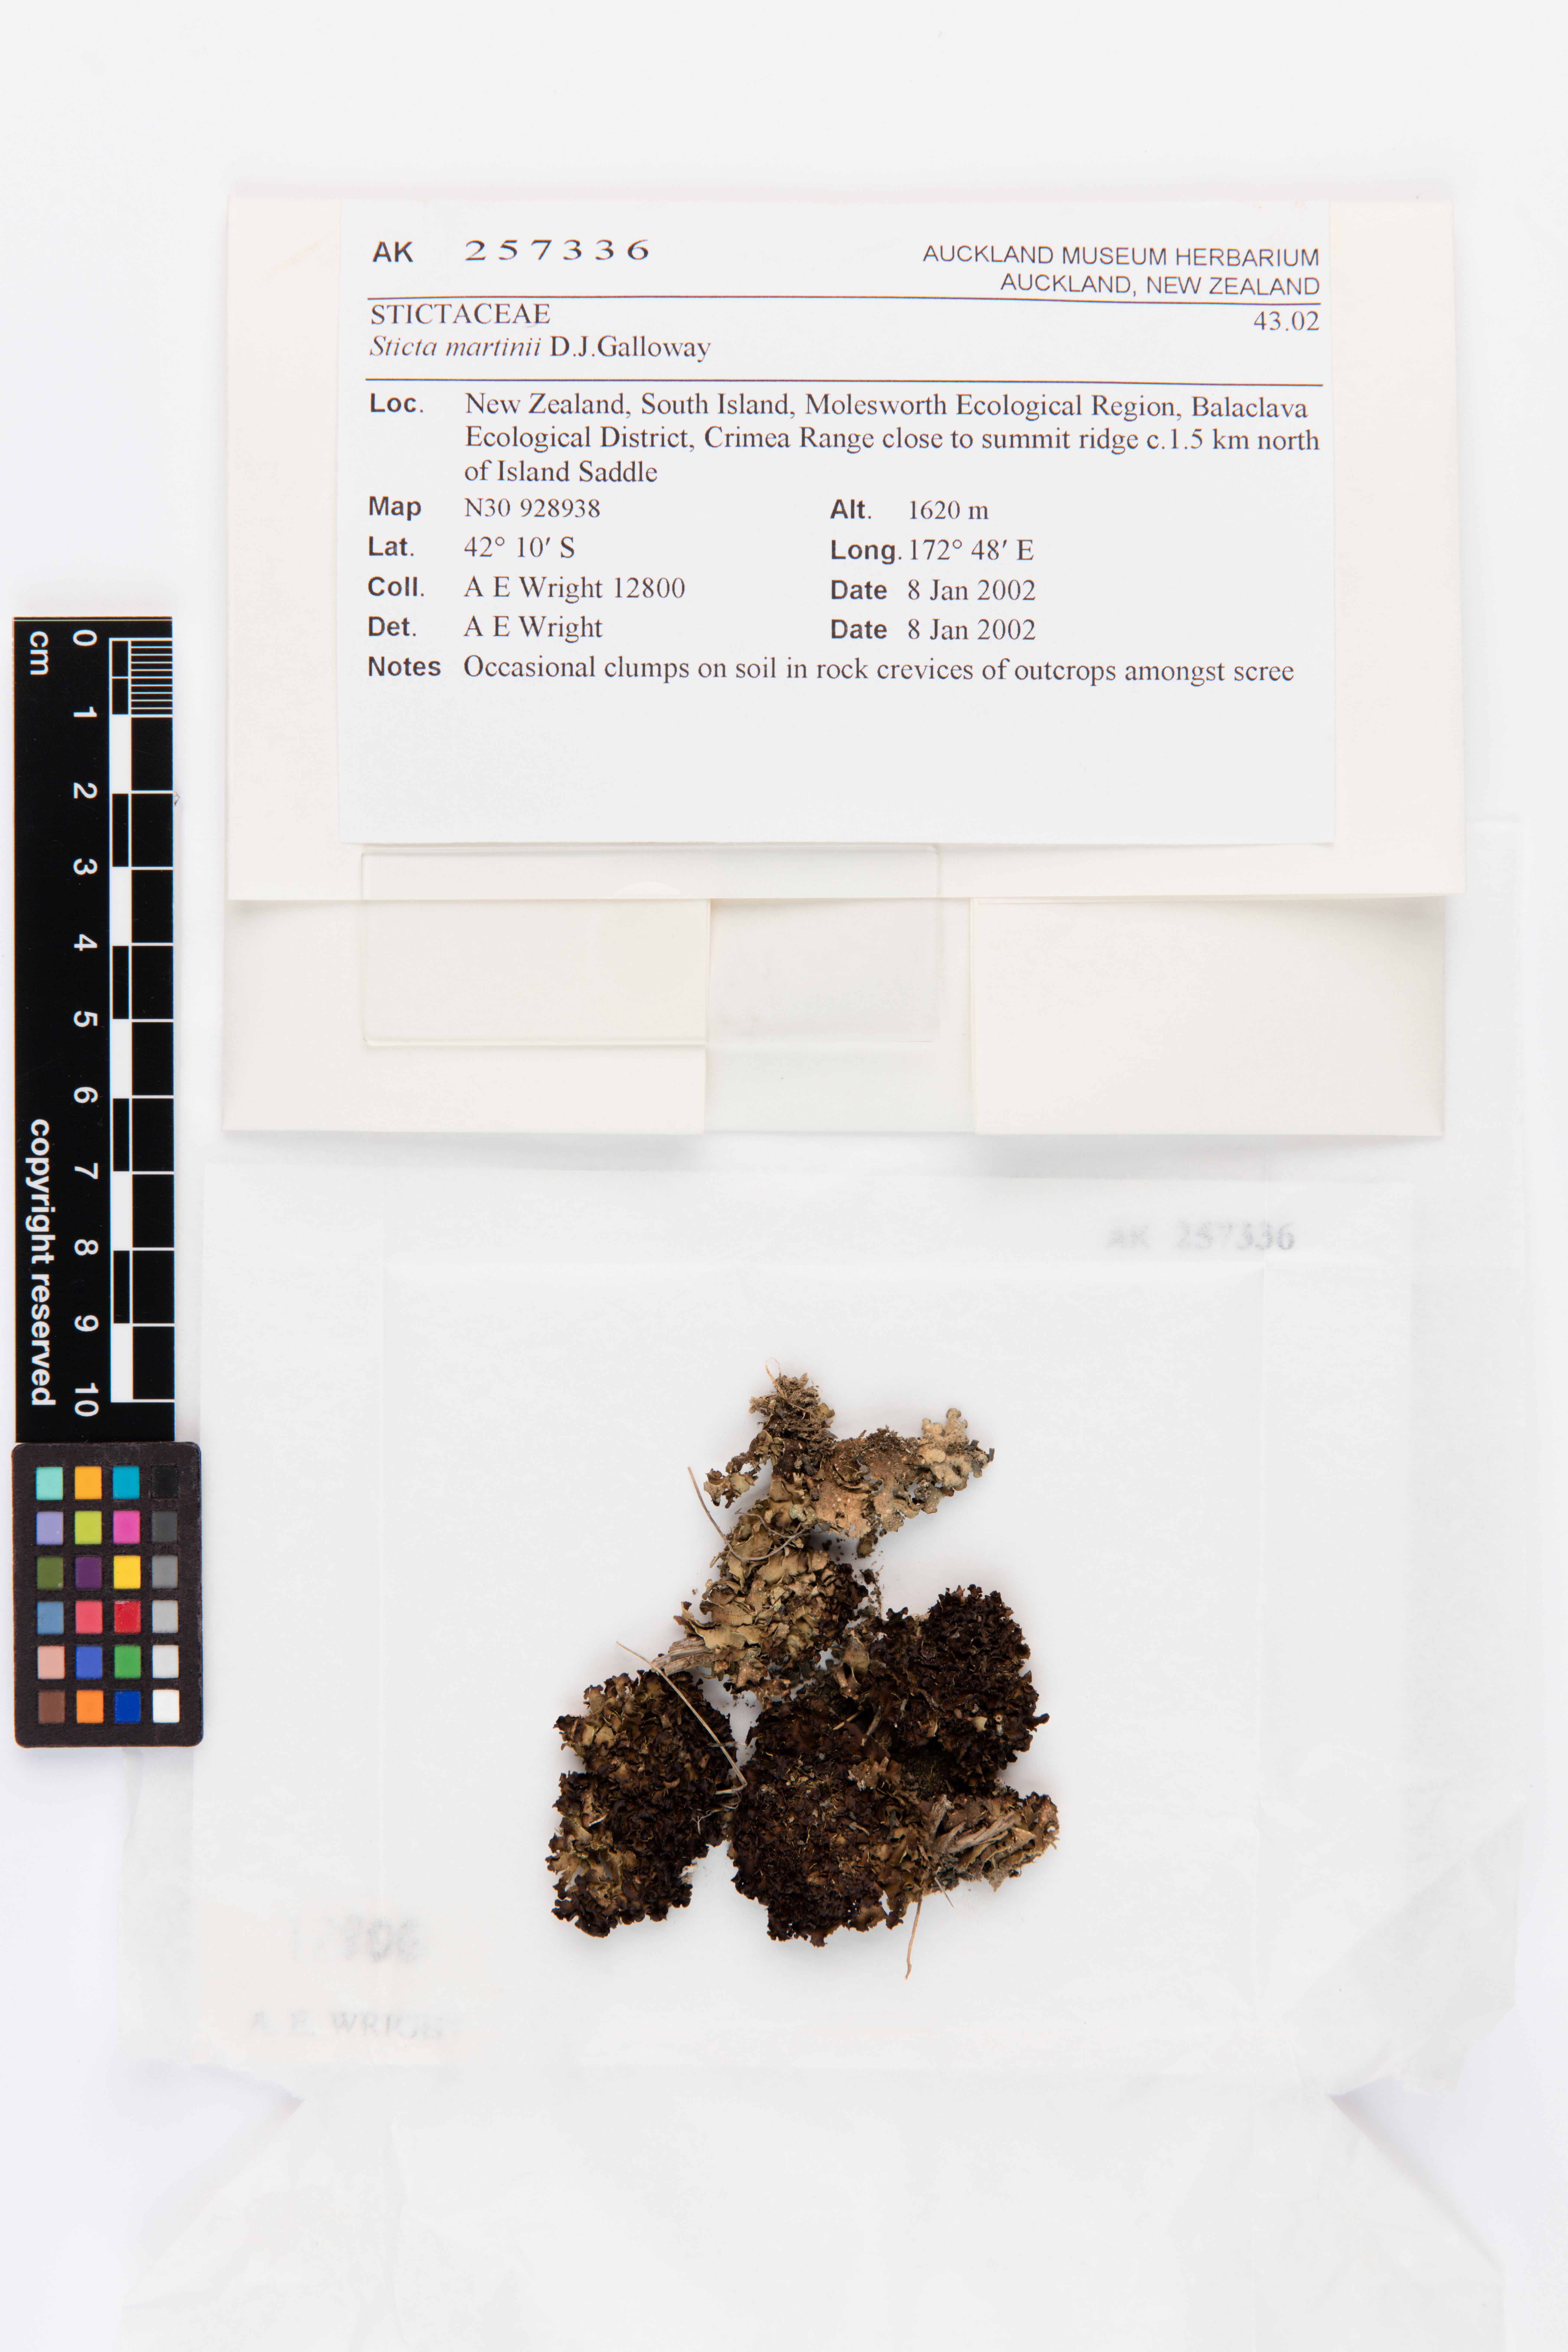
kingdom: Fungi
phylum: Ascomycota
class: Lecanoromycetes
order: Peltigerales
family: Lobariaceae
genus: Sticta
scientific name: Sticta martinii
